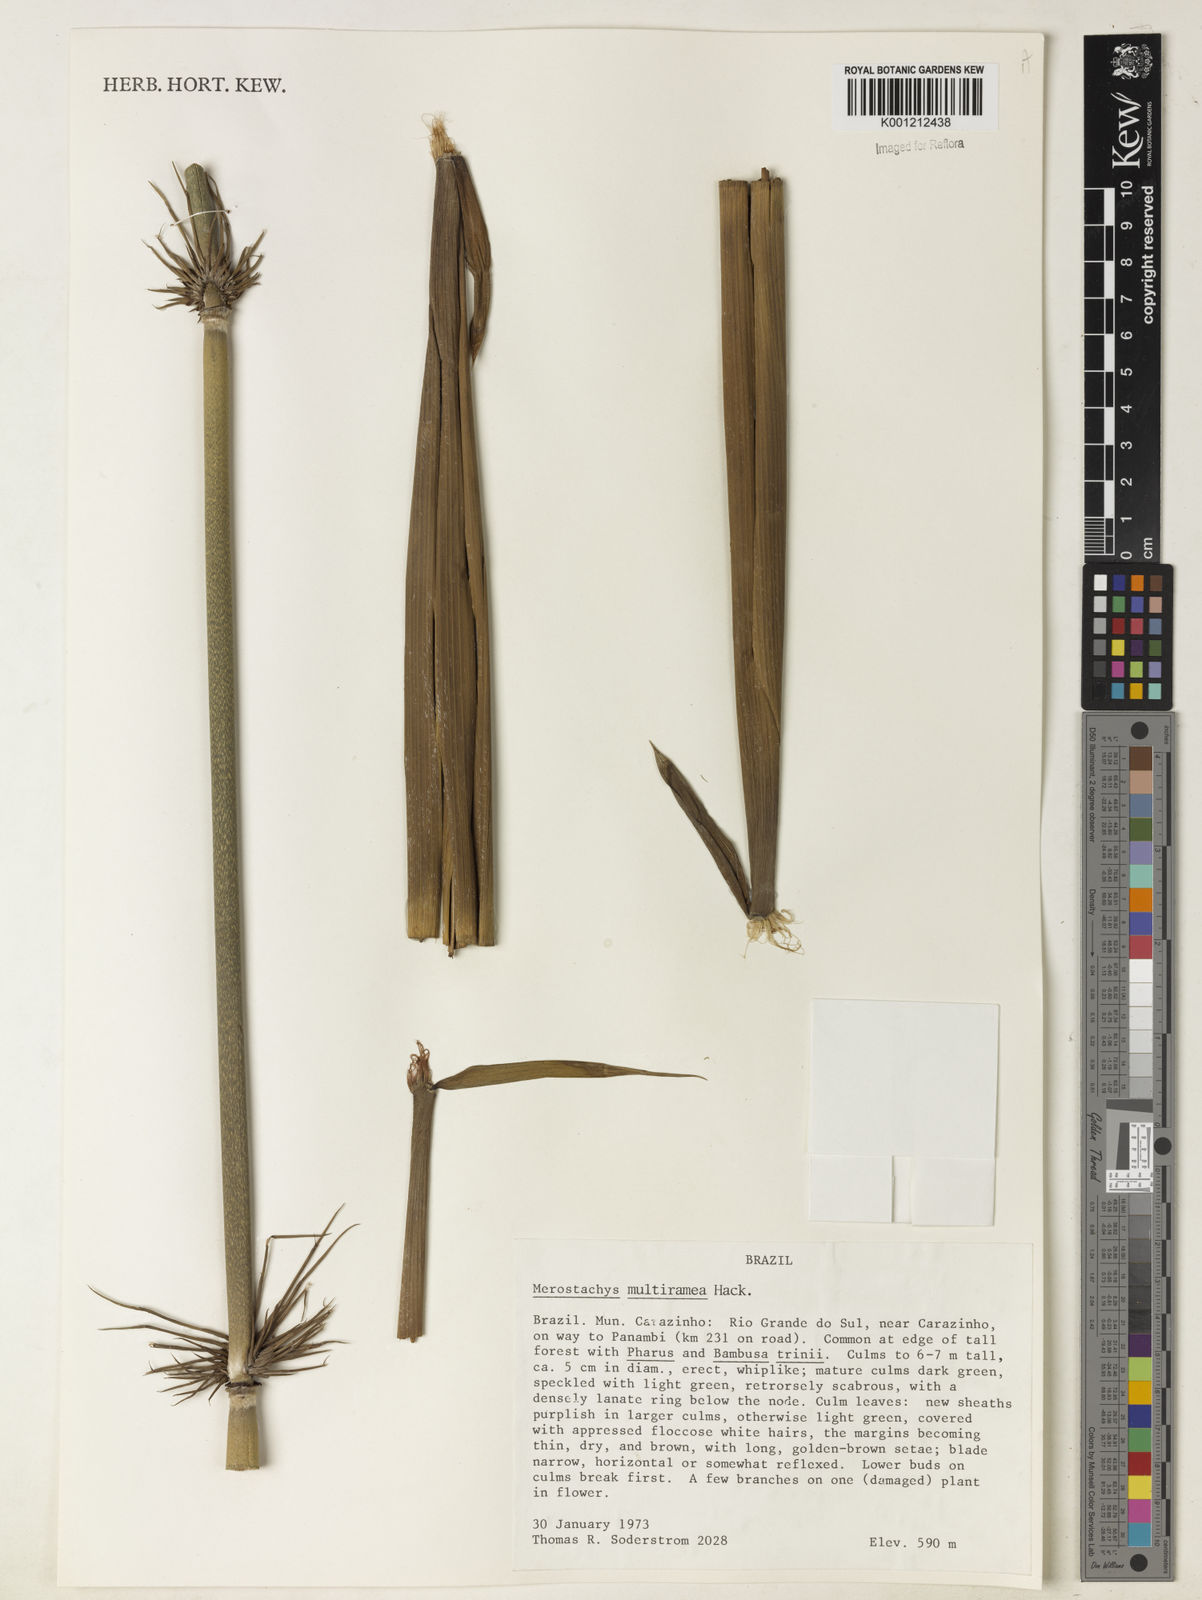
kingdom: Plantae
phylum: Tracheophyta
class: Liliopsida
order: Poales
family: Poaceae
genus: Merostachys
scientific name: Merostachys multiramea
